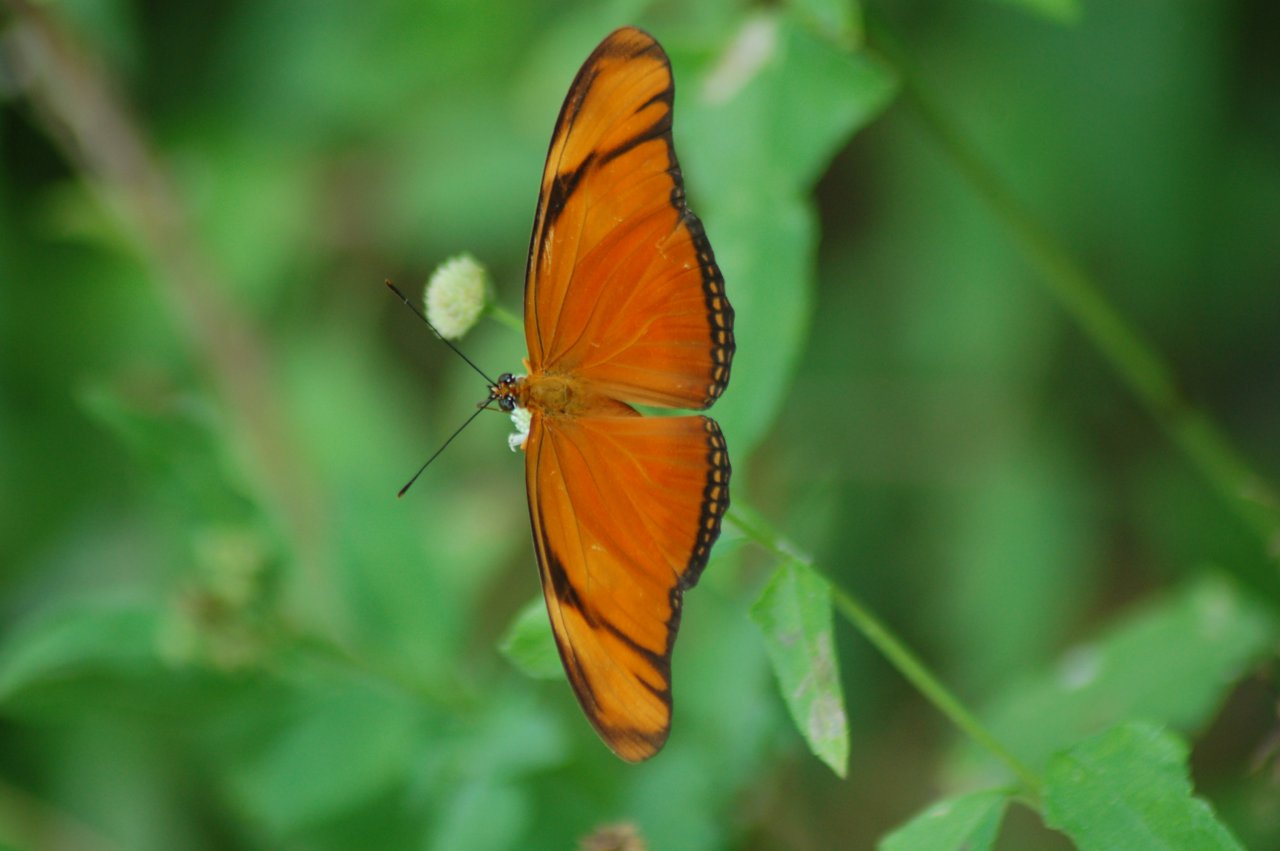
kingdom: Animalia
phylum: Arthropoda
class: Insecta
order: Lepidoptera
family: Nymphalidae
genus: Dryas
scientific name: Dryas iulia
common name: Julia
